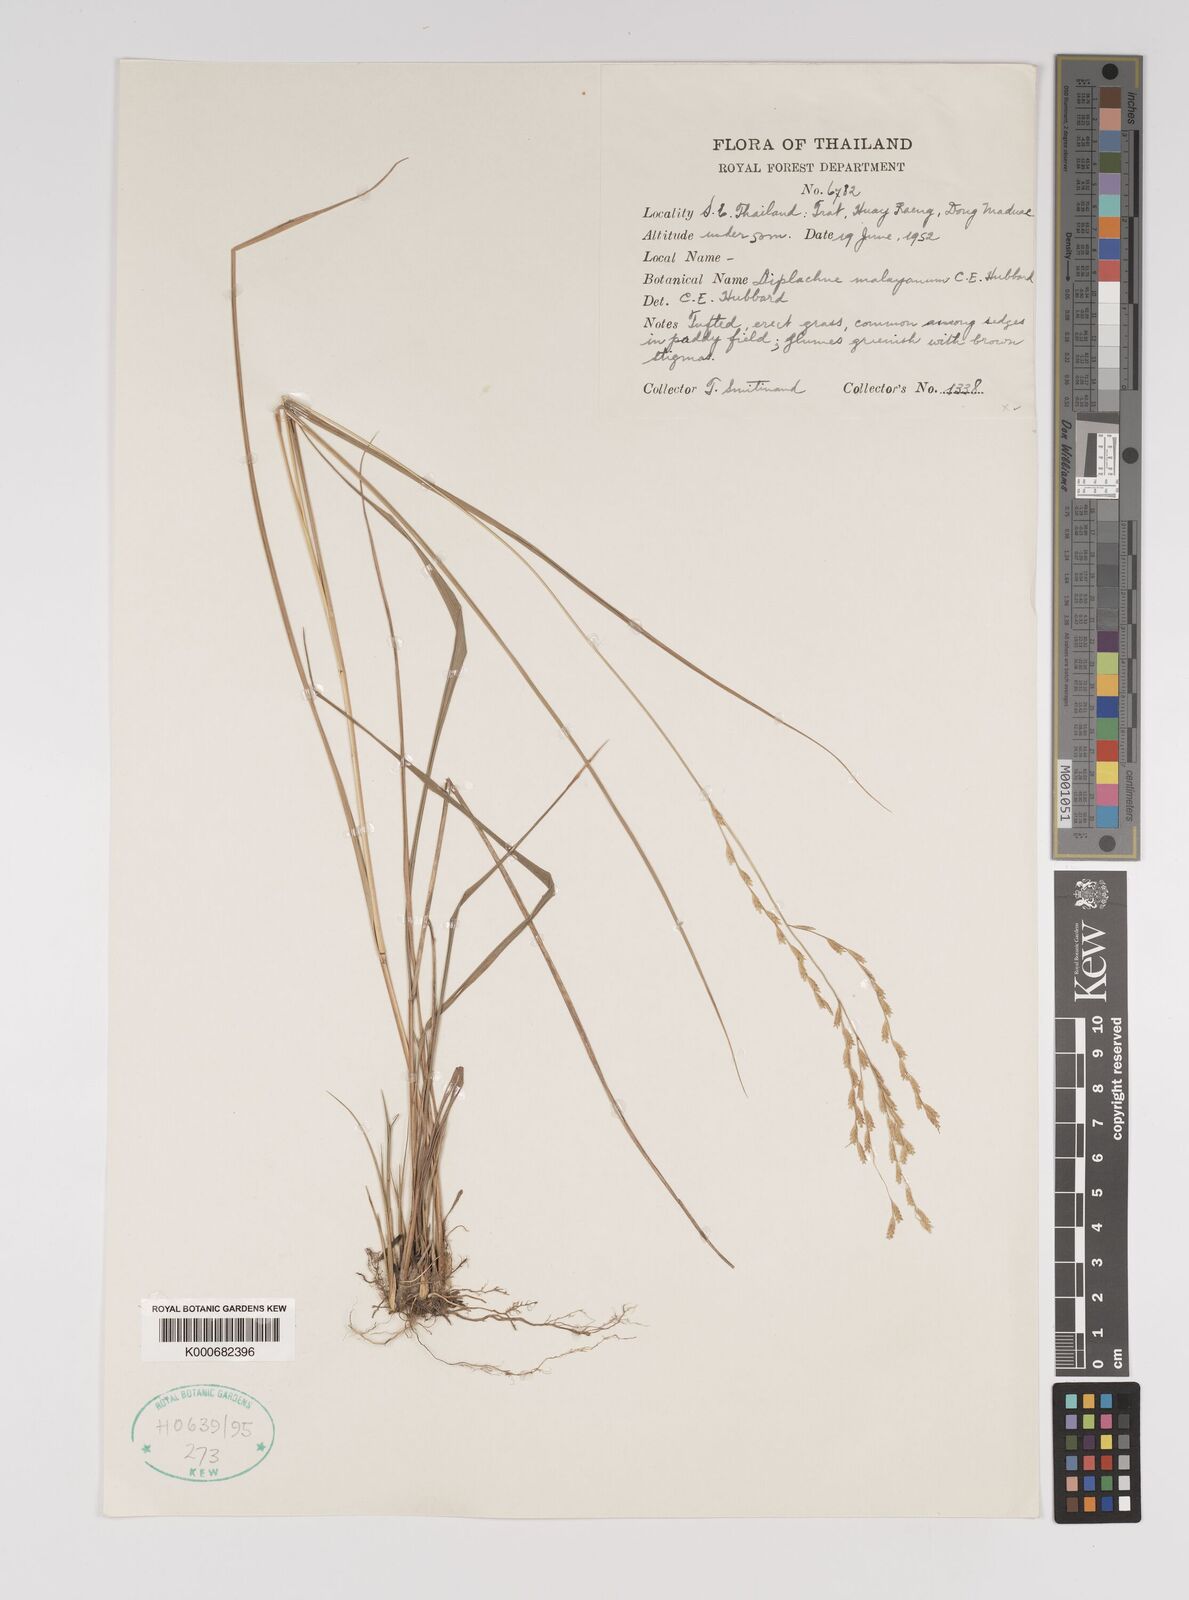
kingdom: Plantae
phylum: Tracheophyta
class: Liliopsida
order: Poales
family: Poaceae
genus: Leptochloa
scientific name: Leptochloa malayana
